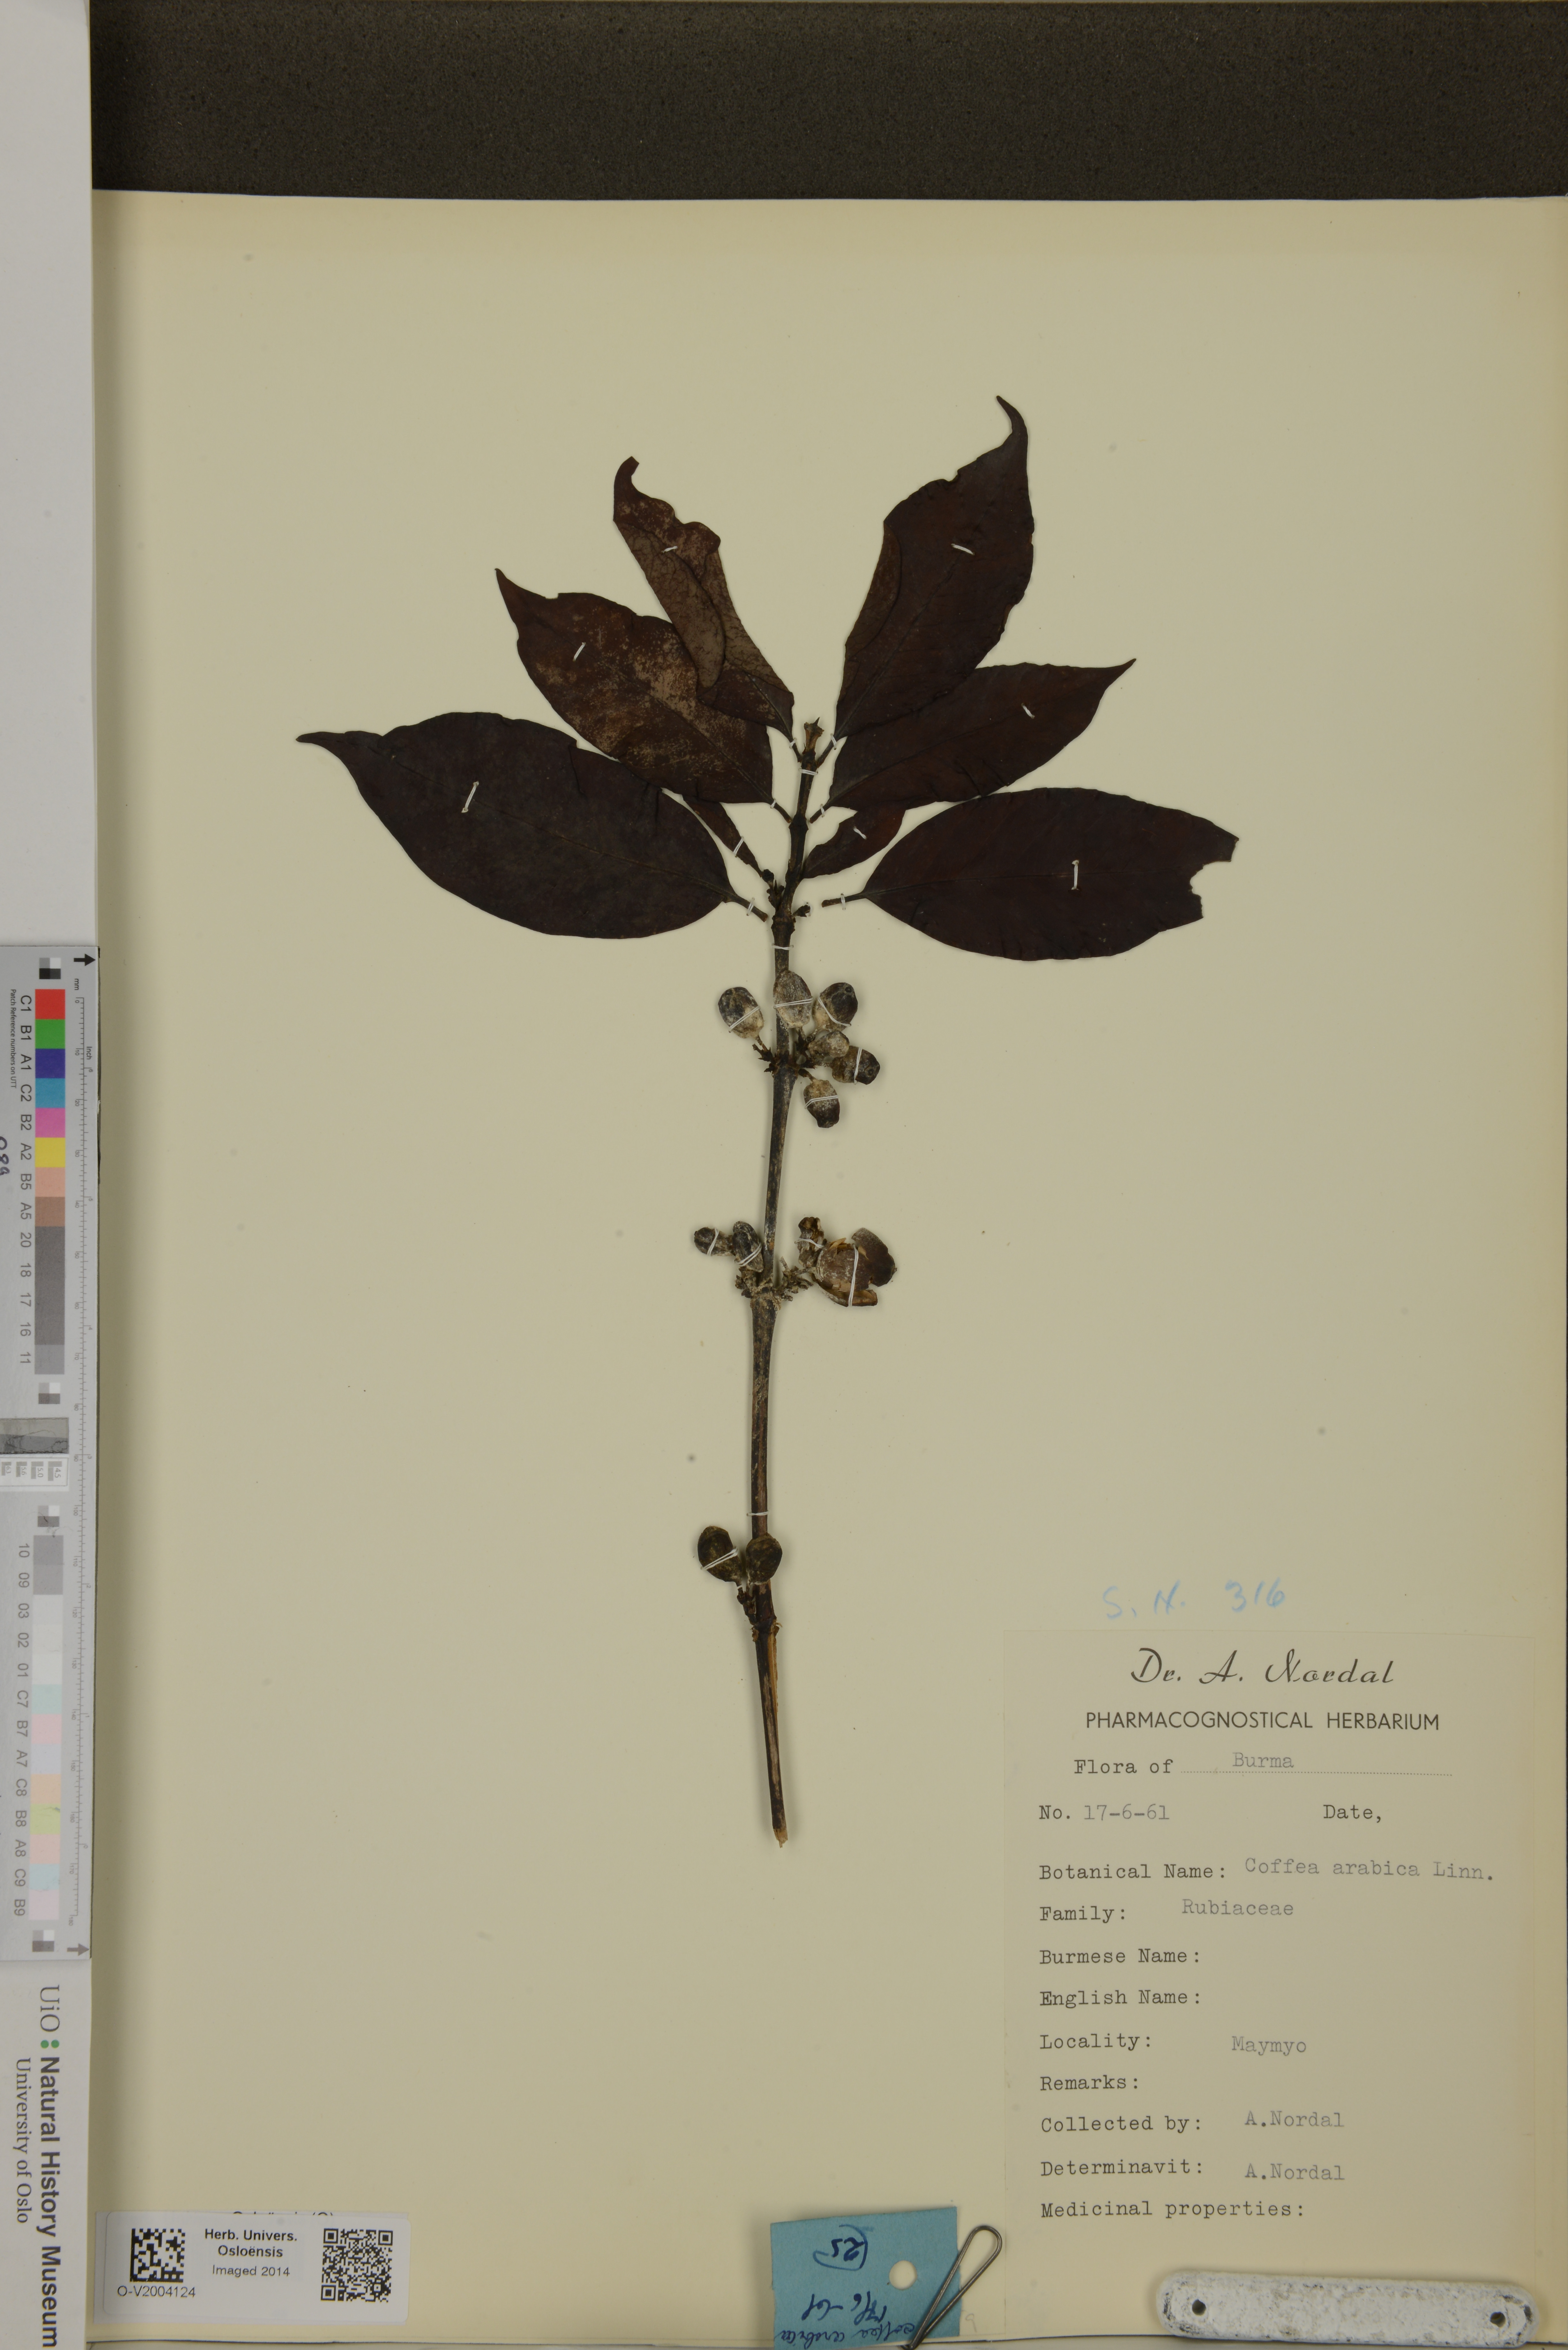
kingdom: Plantae
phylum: Tracheophyta
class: Magnoliopsida
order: Gentianales
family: Rubiaceae
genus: Coffea
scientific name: Coffea arabica
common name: Coffee
